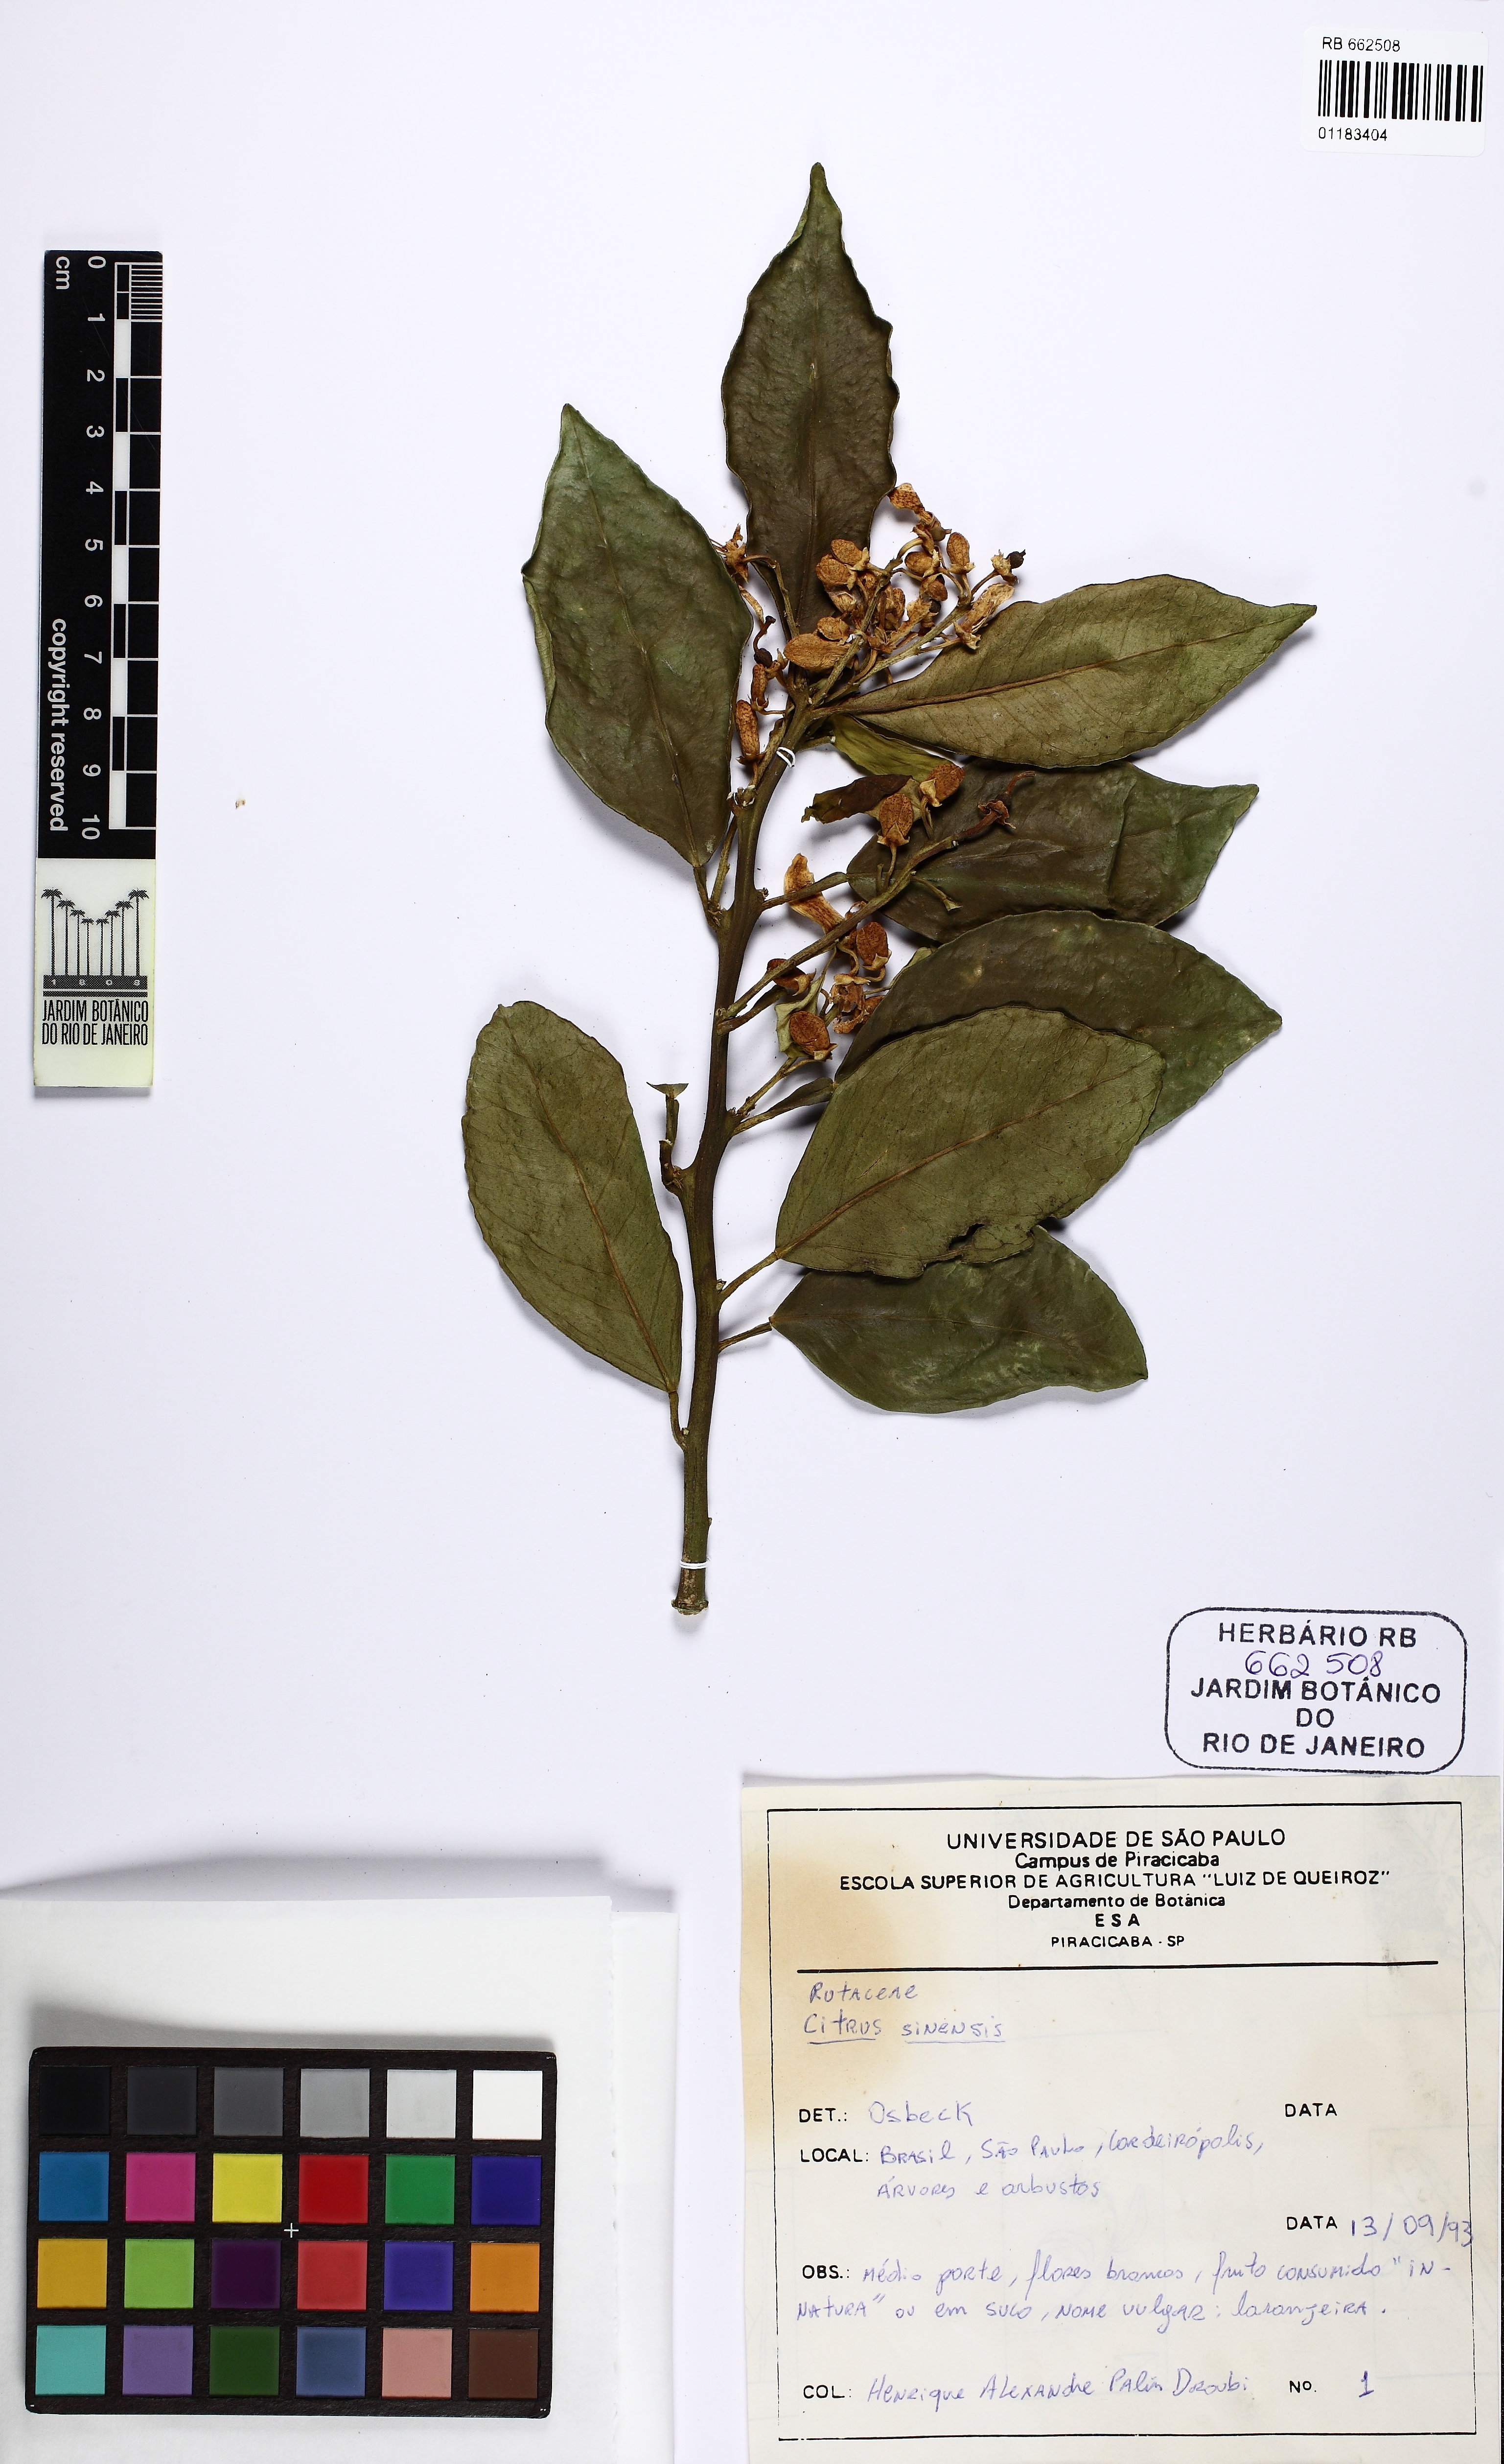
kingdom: Plantae
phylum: Tracheophyta
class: Magnoliopsida
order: Sapindales
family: Rutaceae
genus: Citrus
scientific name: Citrus aurantium
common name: Sour orange
